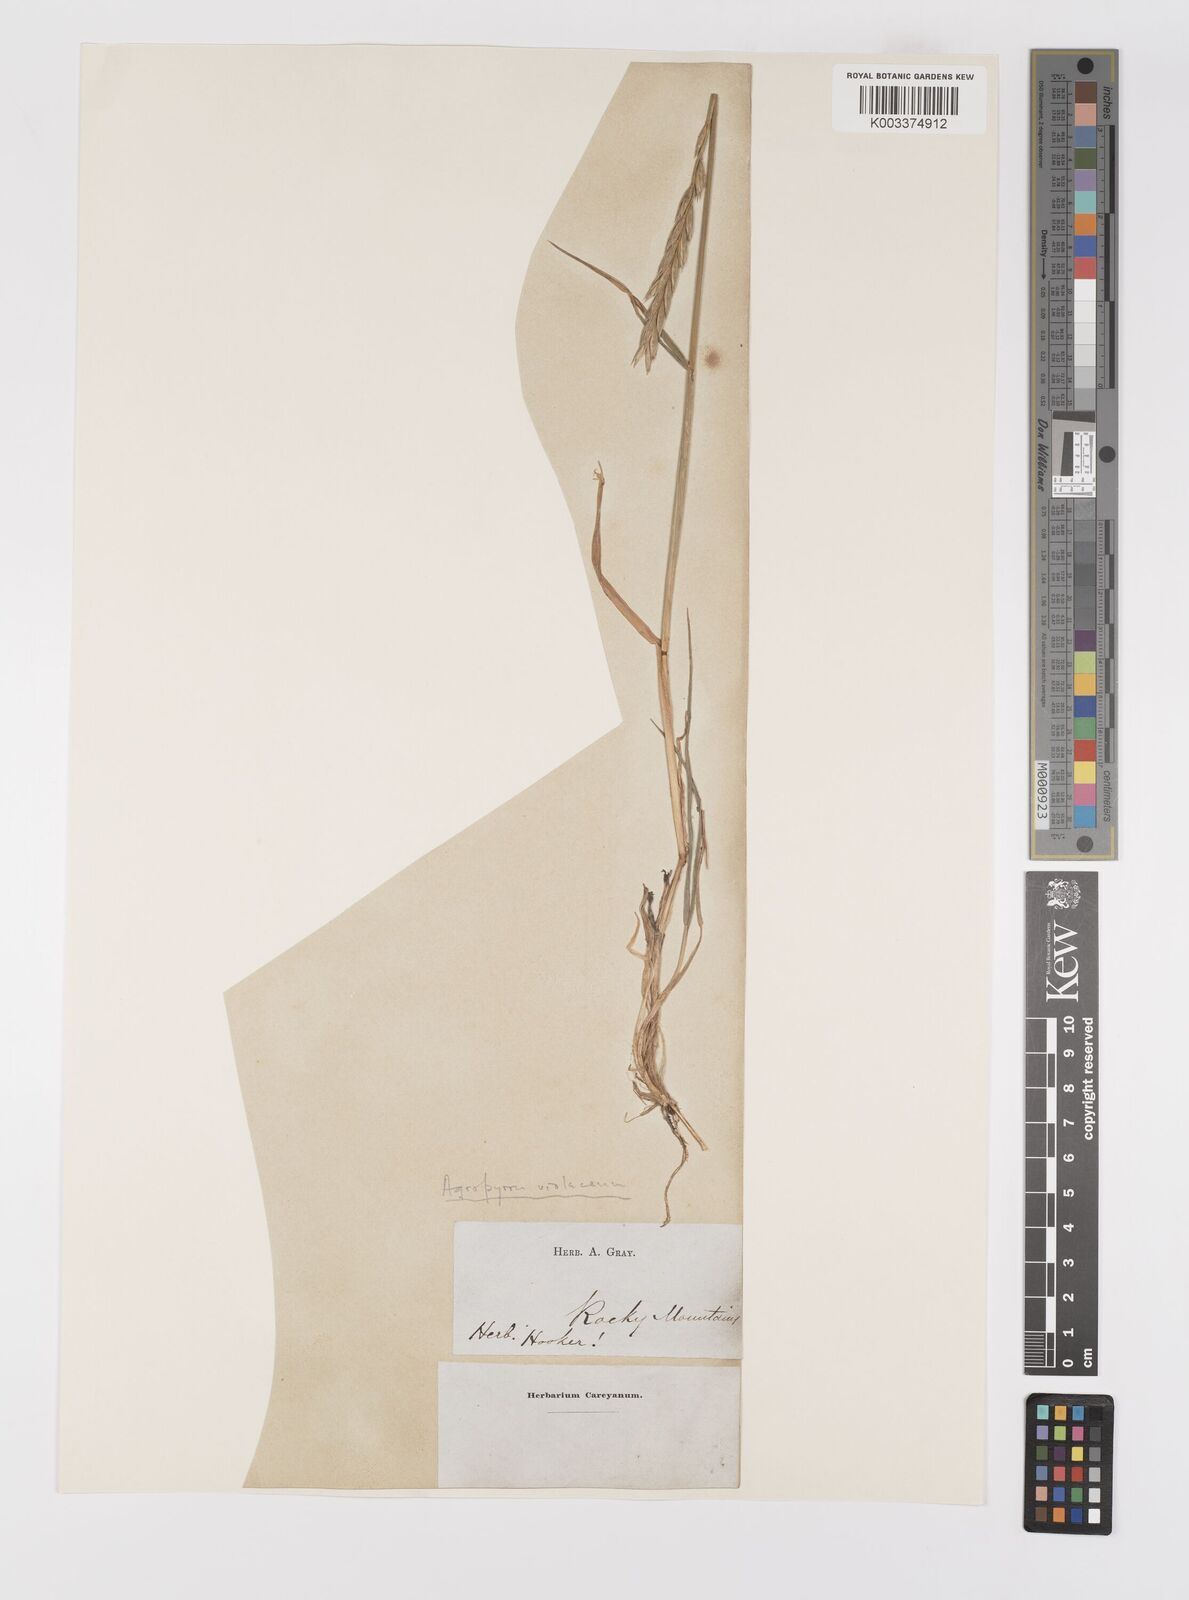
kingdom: Plantae
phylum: Tracheophyta
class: Liliopsida
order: Poales
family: Poaceae
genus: Elymus
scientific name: Elymus violaceus
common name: Arctic wheatgrass
